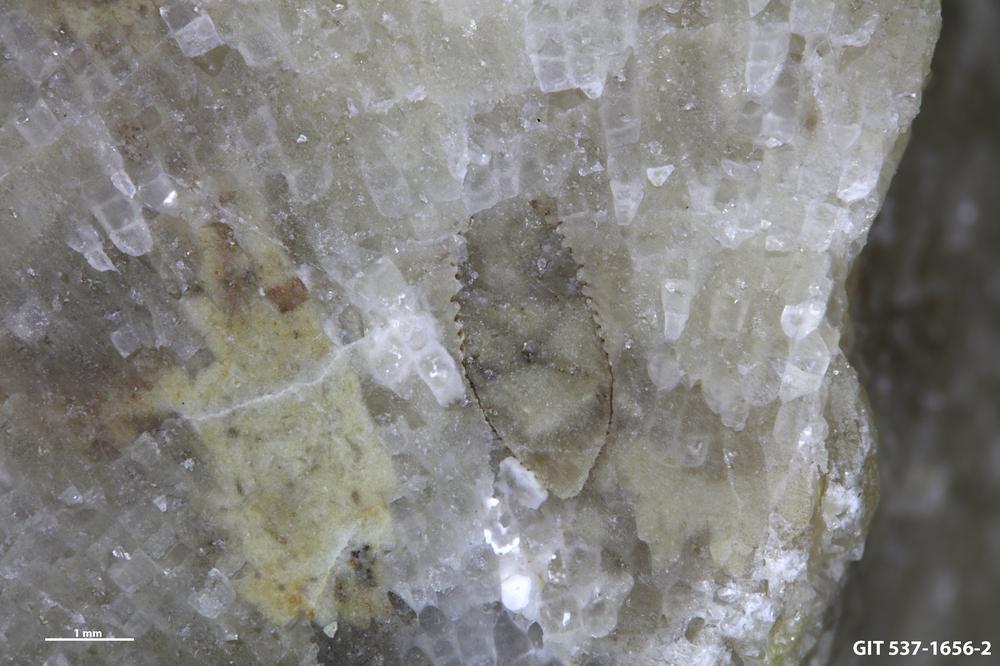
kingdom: Animalia
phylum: Cnidaria
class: Scyphozoa
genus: Climacoconus
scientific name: Climacoconus
